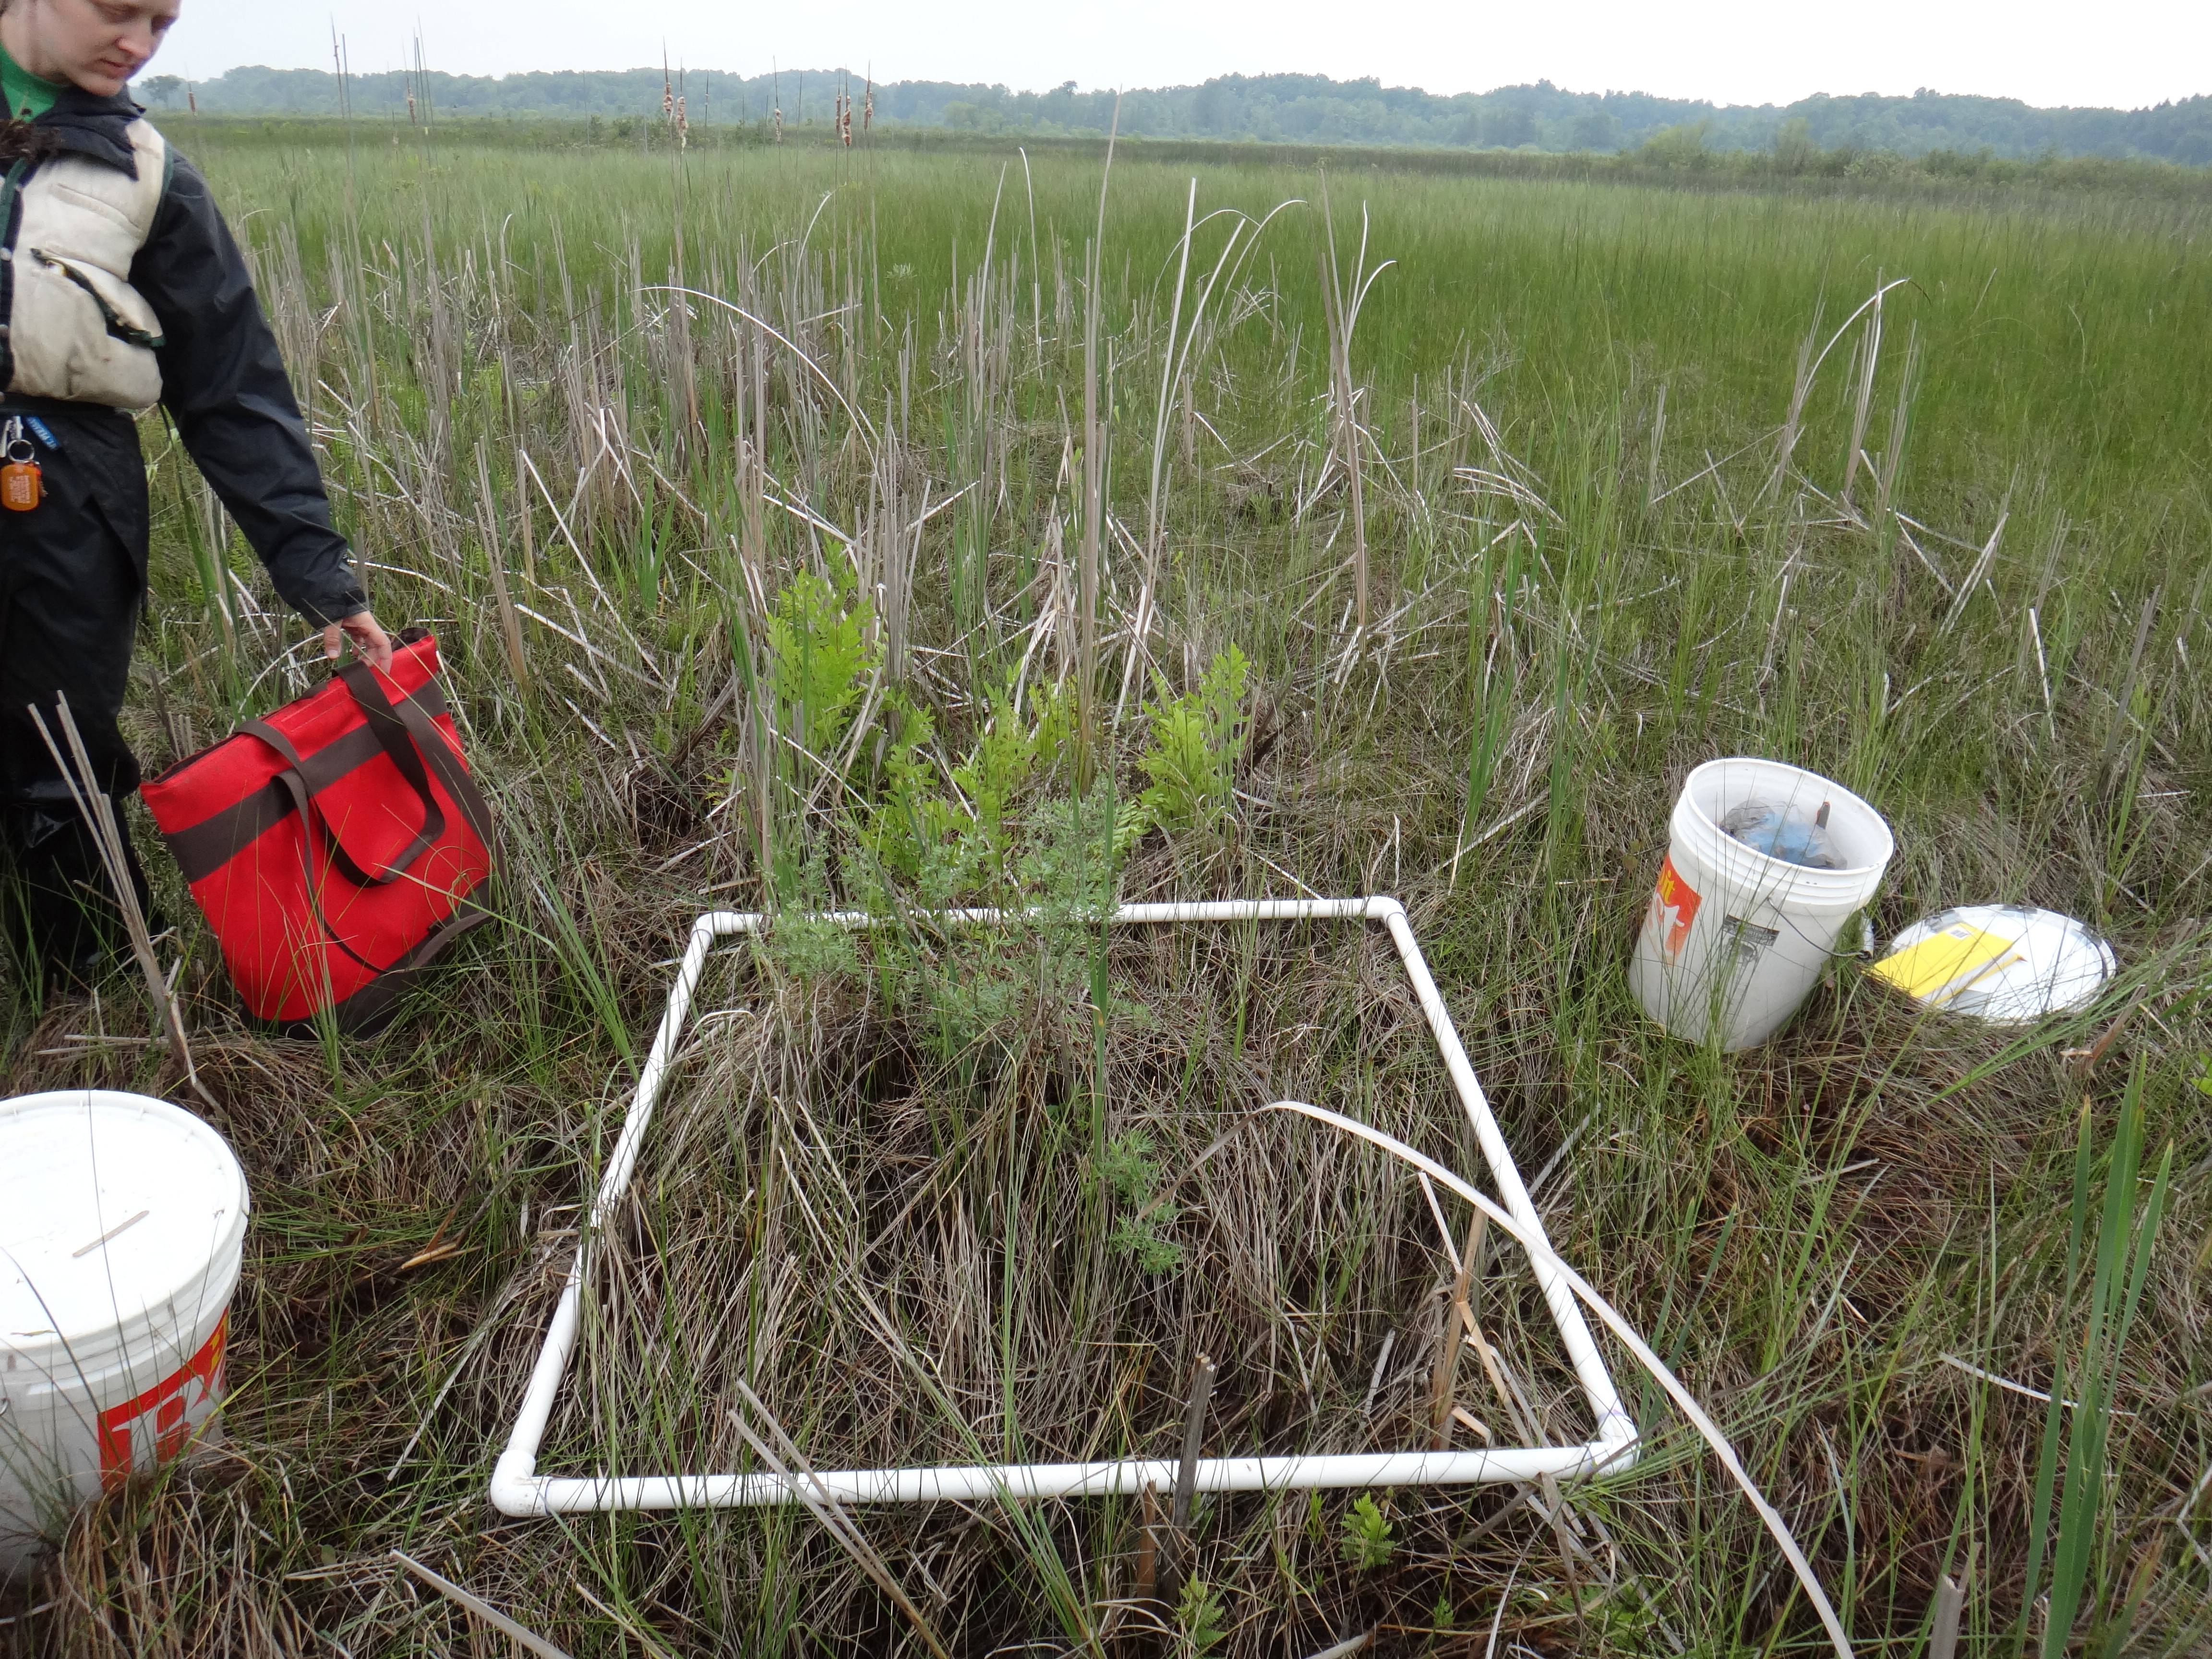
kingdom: Plantae
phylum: Tracheophyta
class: Liliopsida
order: Poales
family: Cyperaceae
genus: Carex
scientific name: Carex aquatilis
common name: Water sedge
